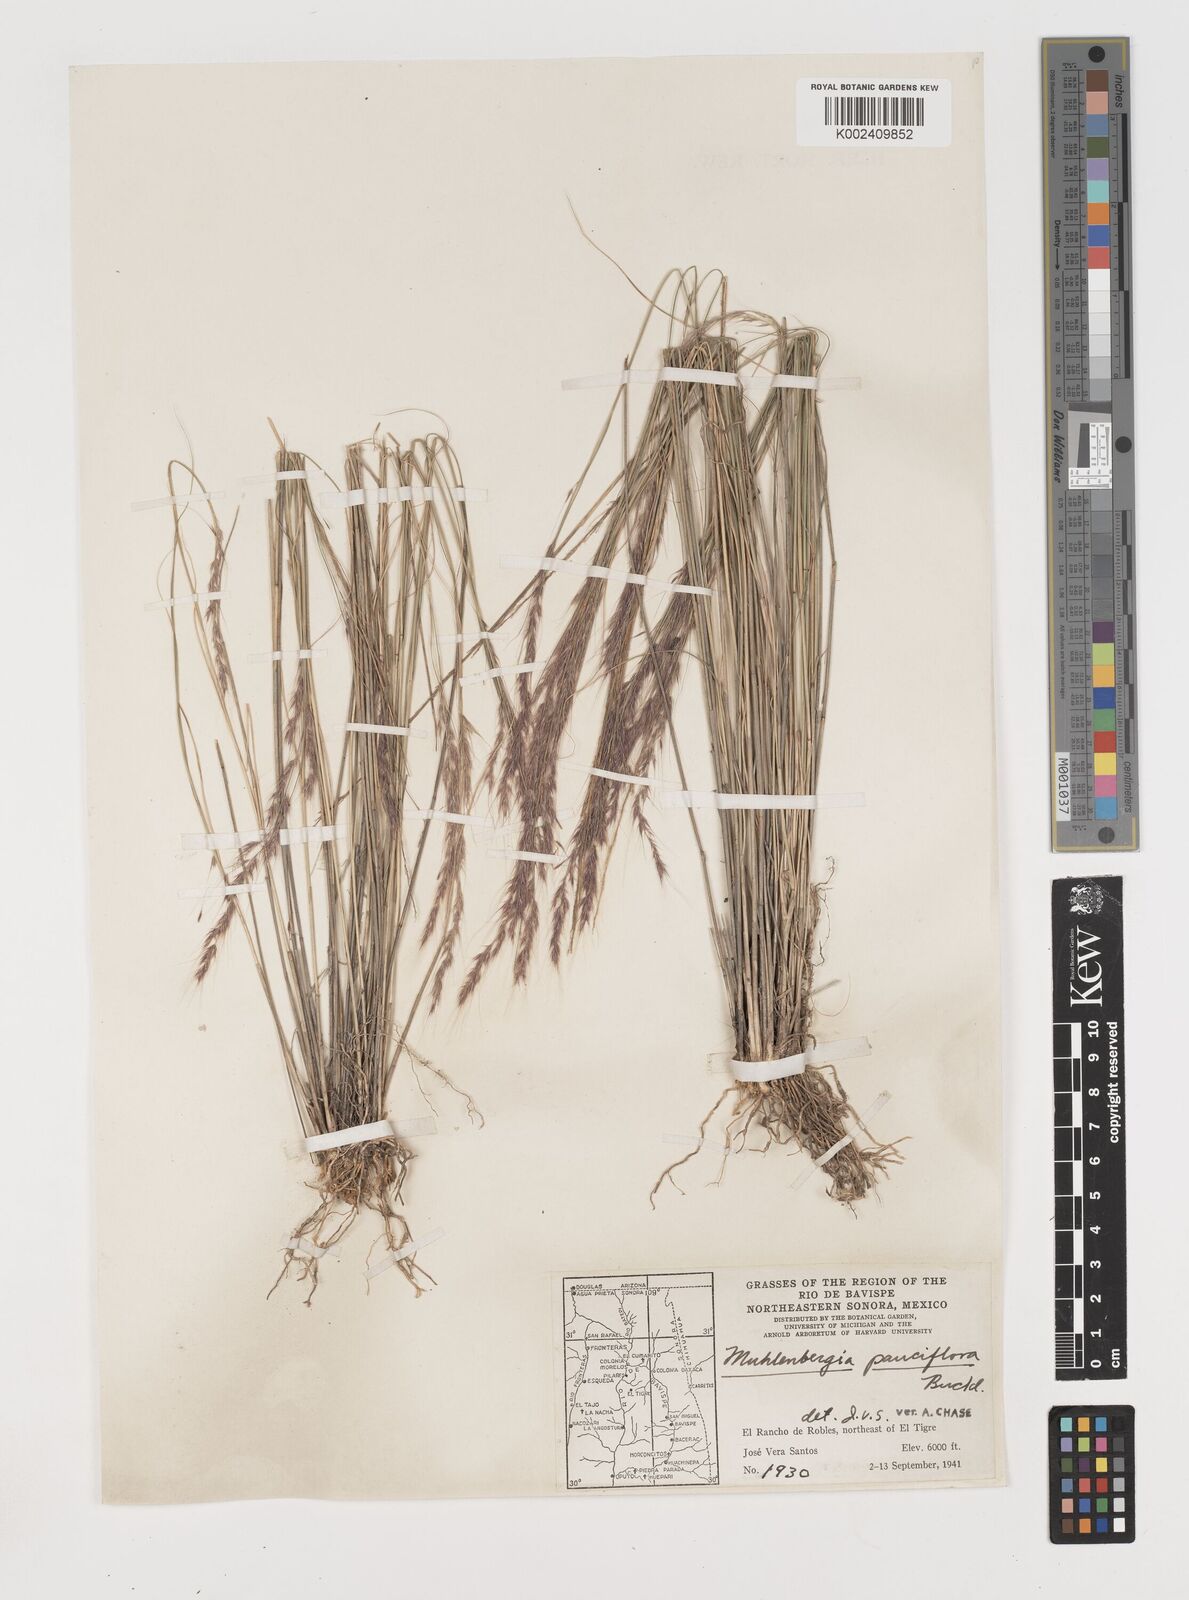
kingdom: Plantae
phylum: Tracheophyta
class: Liliopsida
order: Poales
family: Poaceae
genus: Muhlenbergia
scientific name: Muhlenbergia pauciflora
